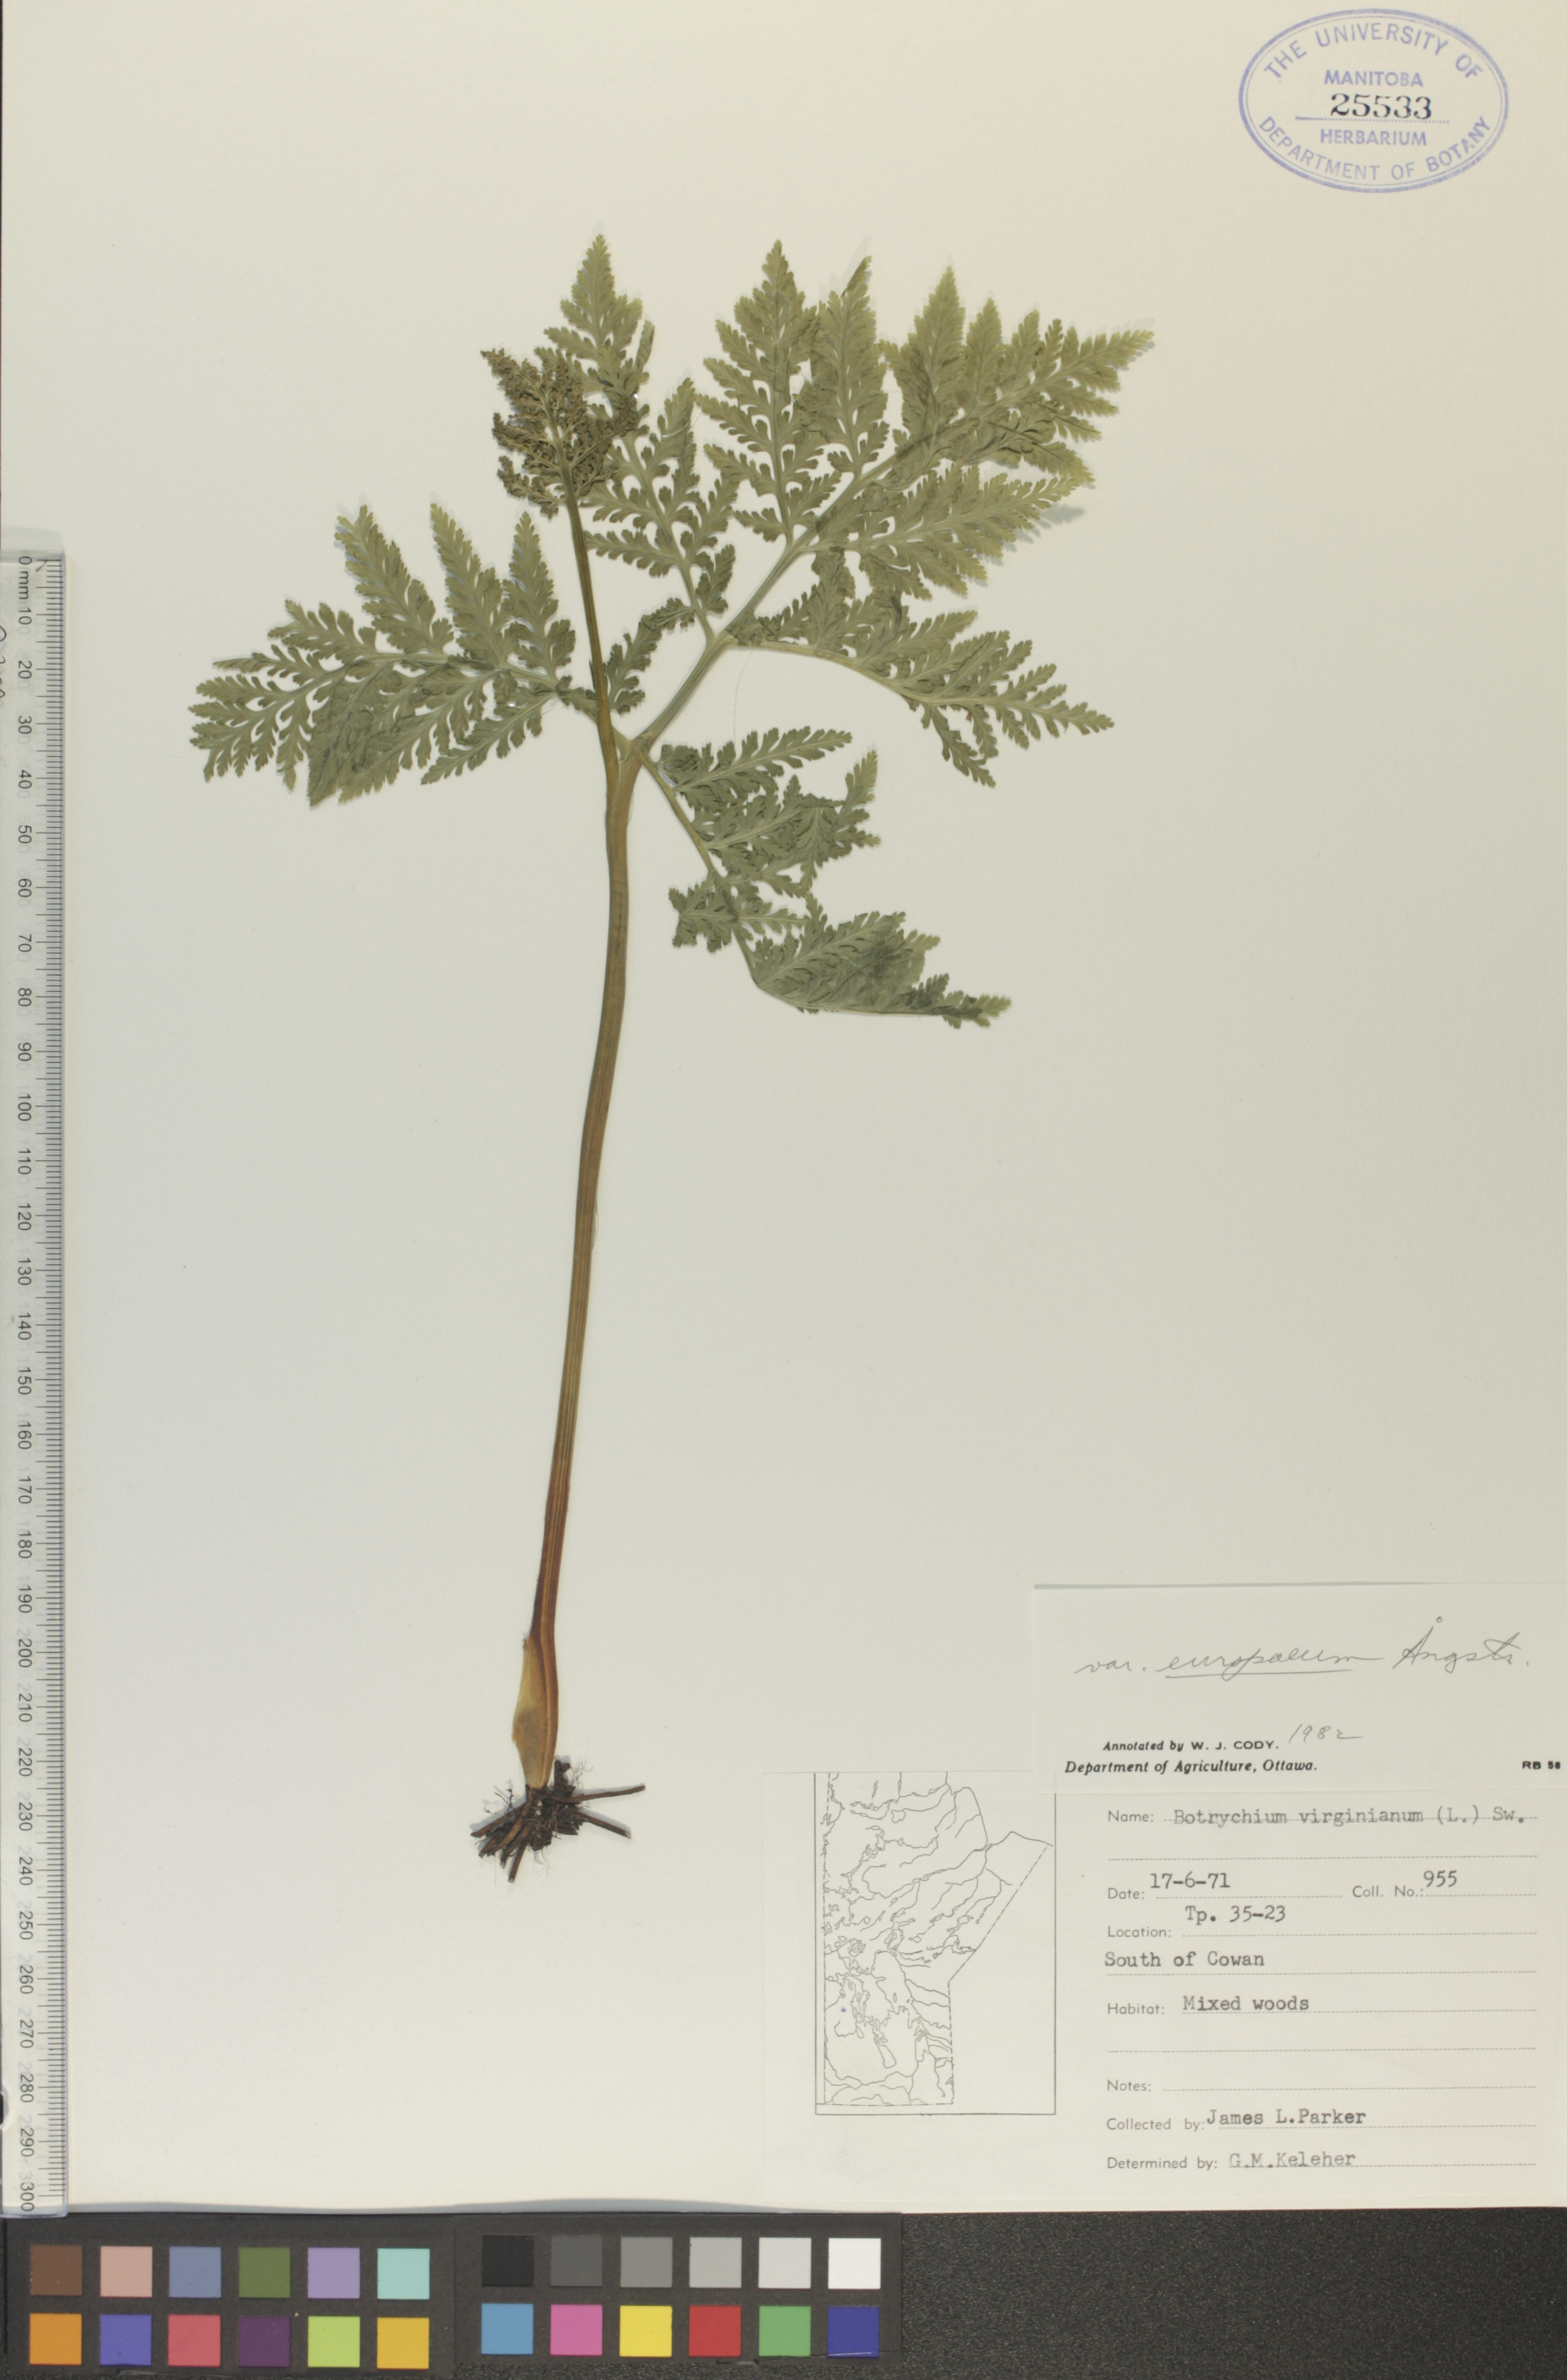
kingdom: Plantae
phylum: Tracheophyta
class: Polypodiopsida
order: Ophioglossales
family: Ophioglossaceae
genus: Botrypus
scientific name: Botrypus virginianus
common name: Common grapefern
